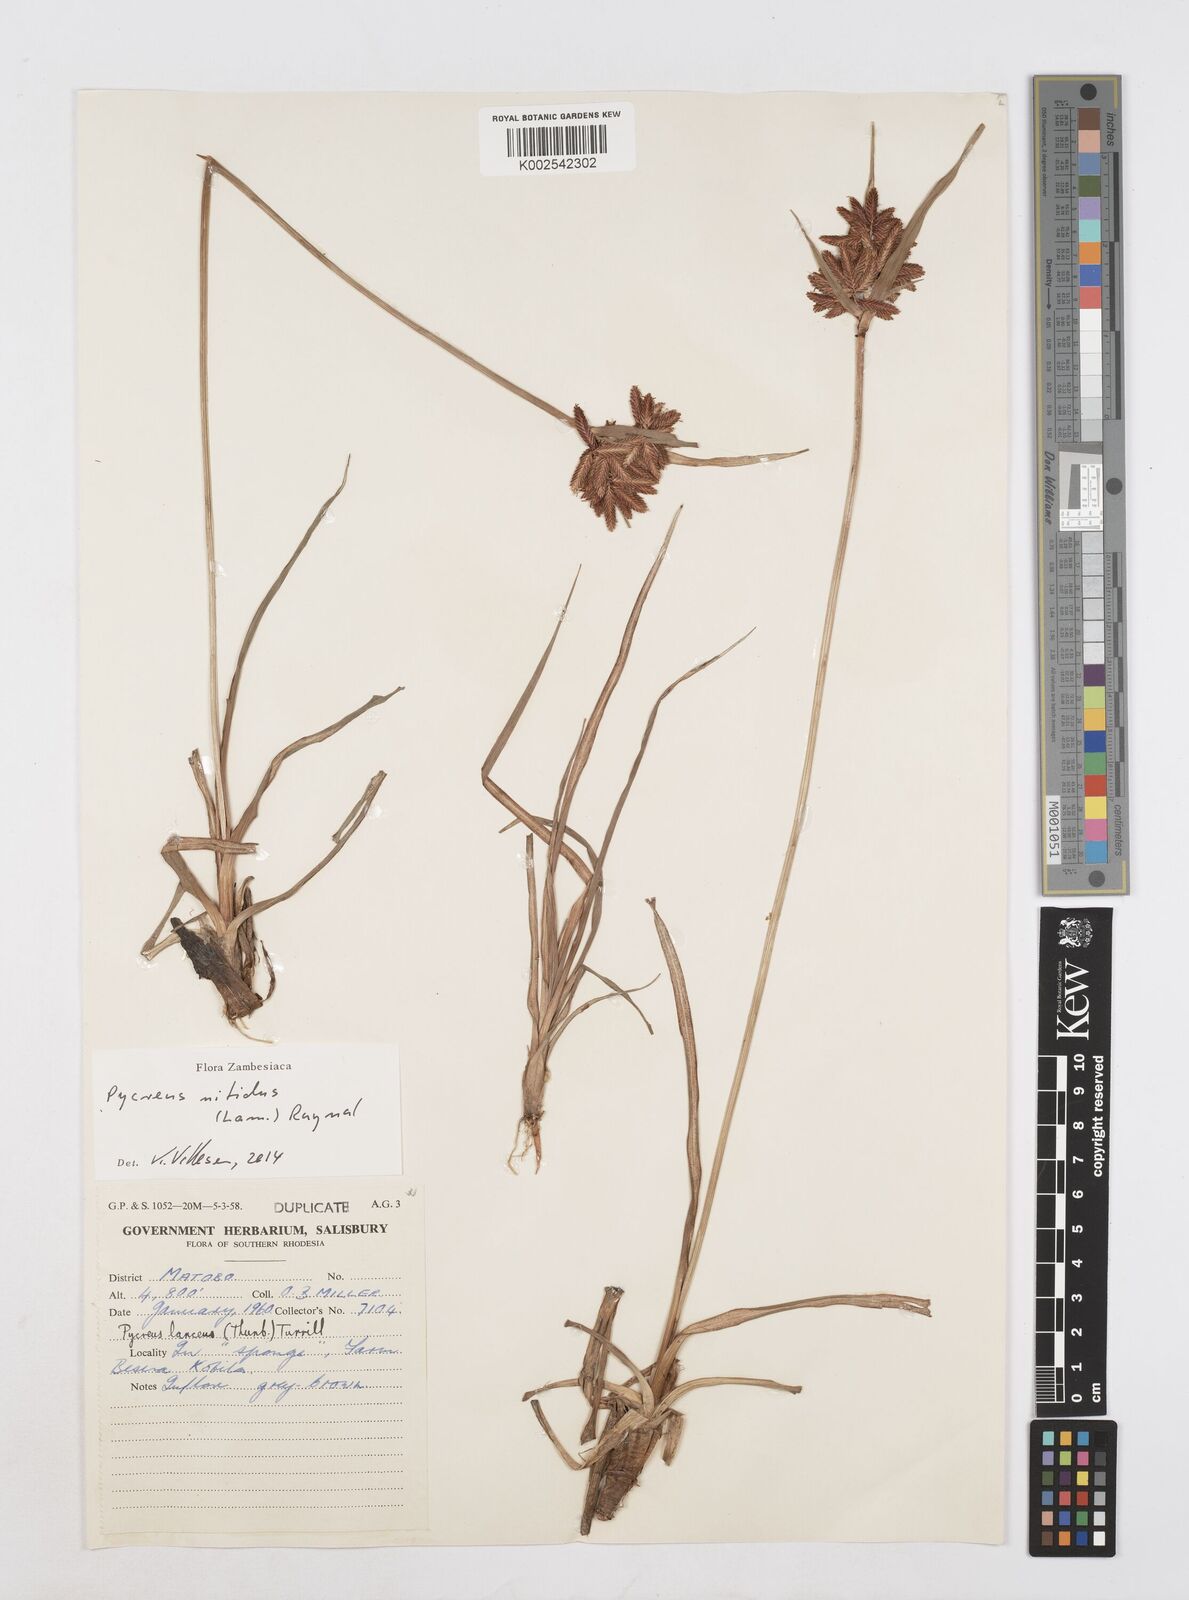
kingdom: Plantae
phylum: Tracheophyta
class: Liliopsida
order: Poales
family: Cyperaceae
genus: Cyperus
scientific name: Cyperus nitidus
